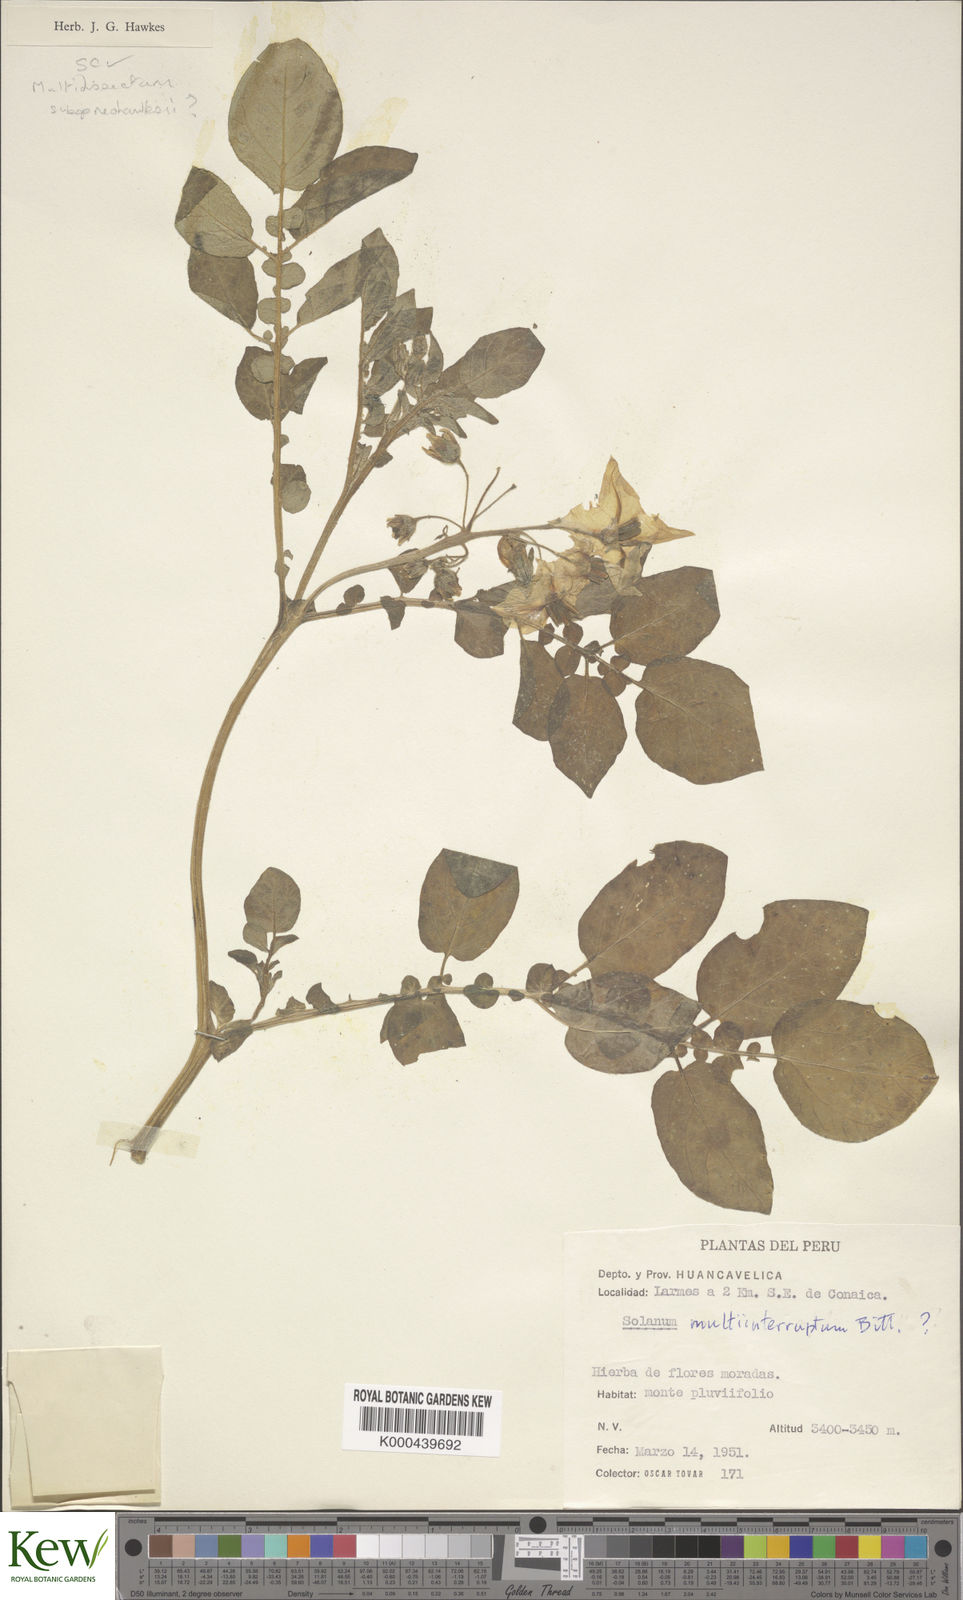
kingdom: Plantae
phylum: Tracheophyta
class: Magnoliopsida
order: Solanales
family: Solanaceae
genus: Solanum
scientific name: Solanum multiinterruptum
